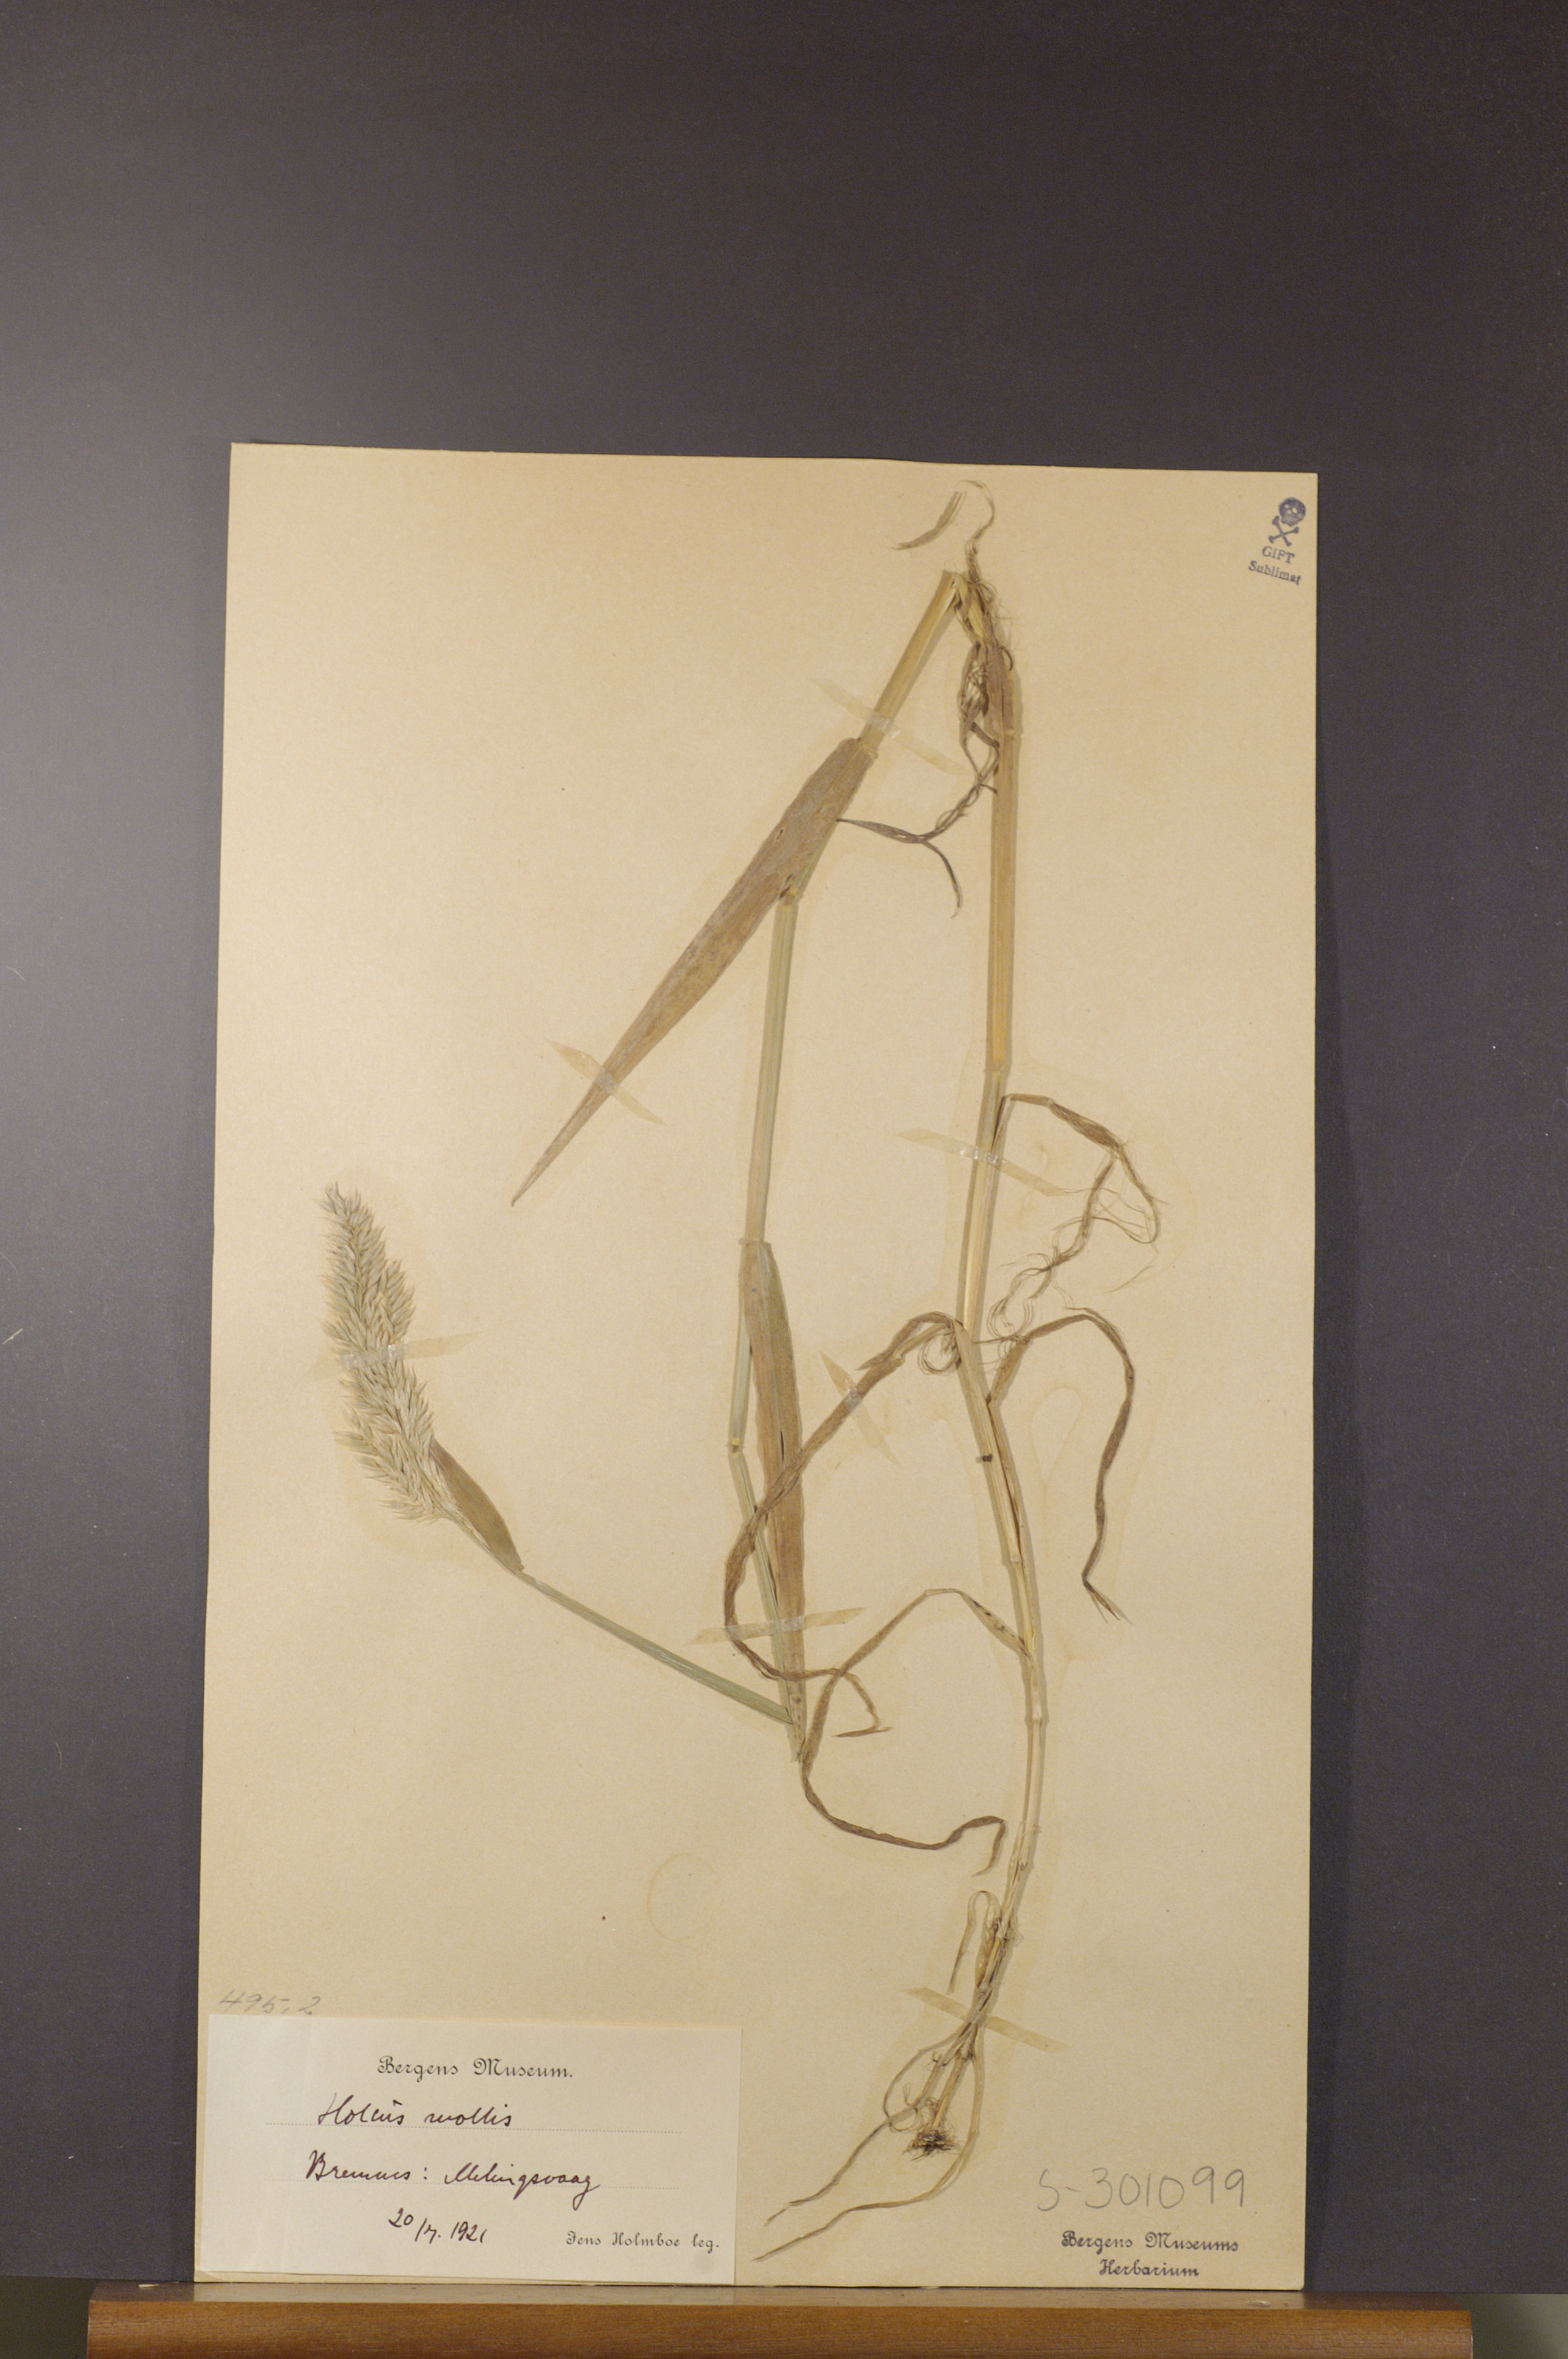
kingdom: Plantae
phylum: Tracheophyta
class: Liliopsida
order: Poales
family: Poaceae
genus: Holcus
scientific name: Holcus mollis
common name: Creeping velvetgrass
